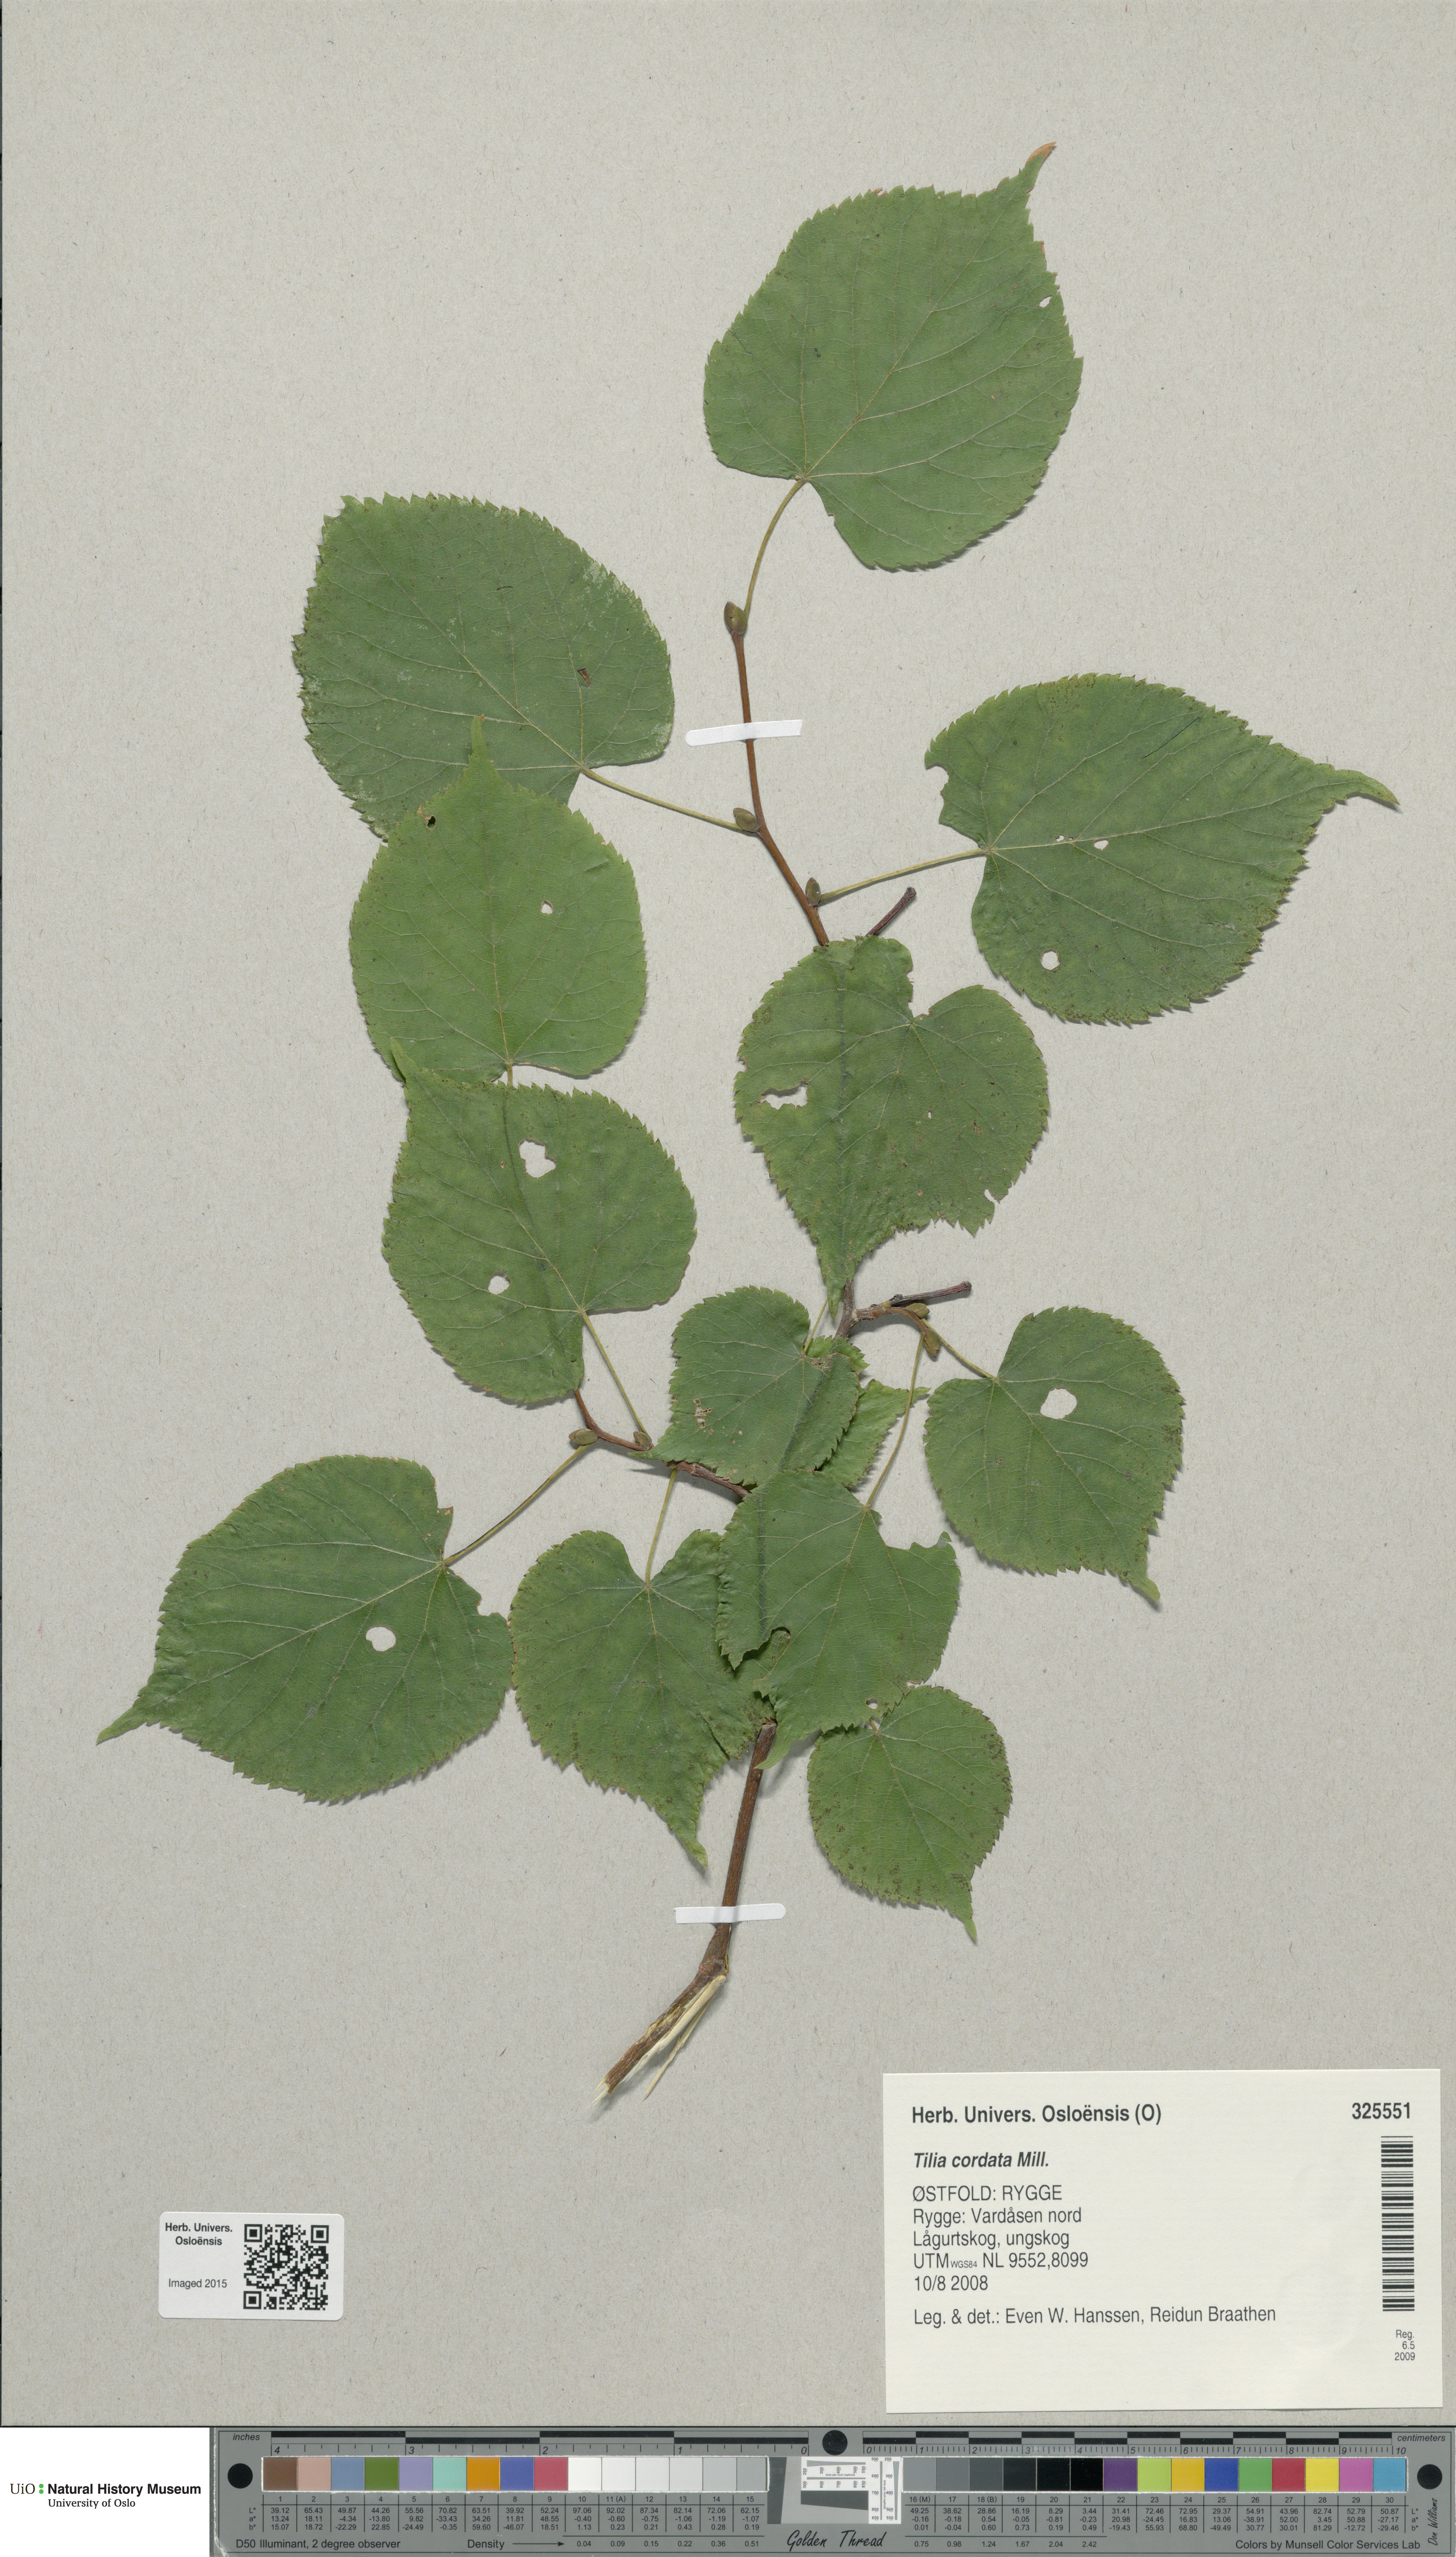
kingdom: Plantae
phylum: Tracheophyta
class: Magnoliopsida
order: Malvales
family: Malvaceae
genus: Tilia
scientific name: Tilia cordata
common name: Small-leaved lime
